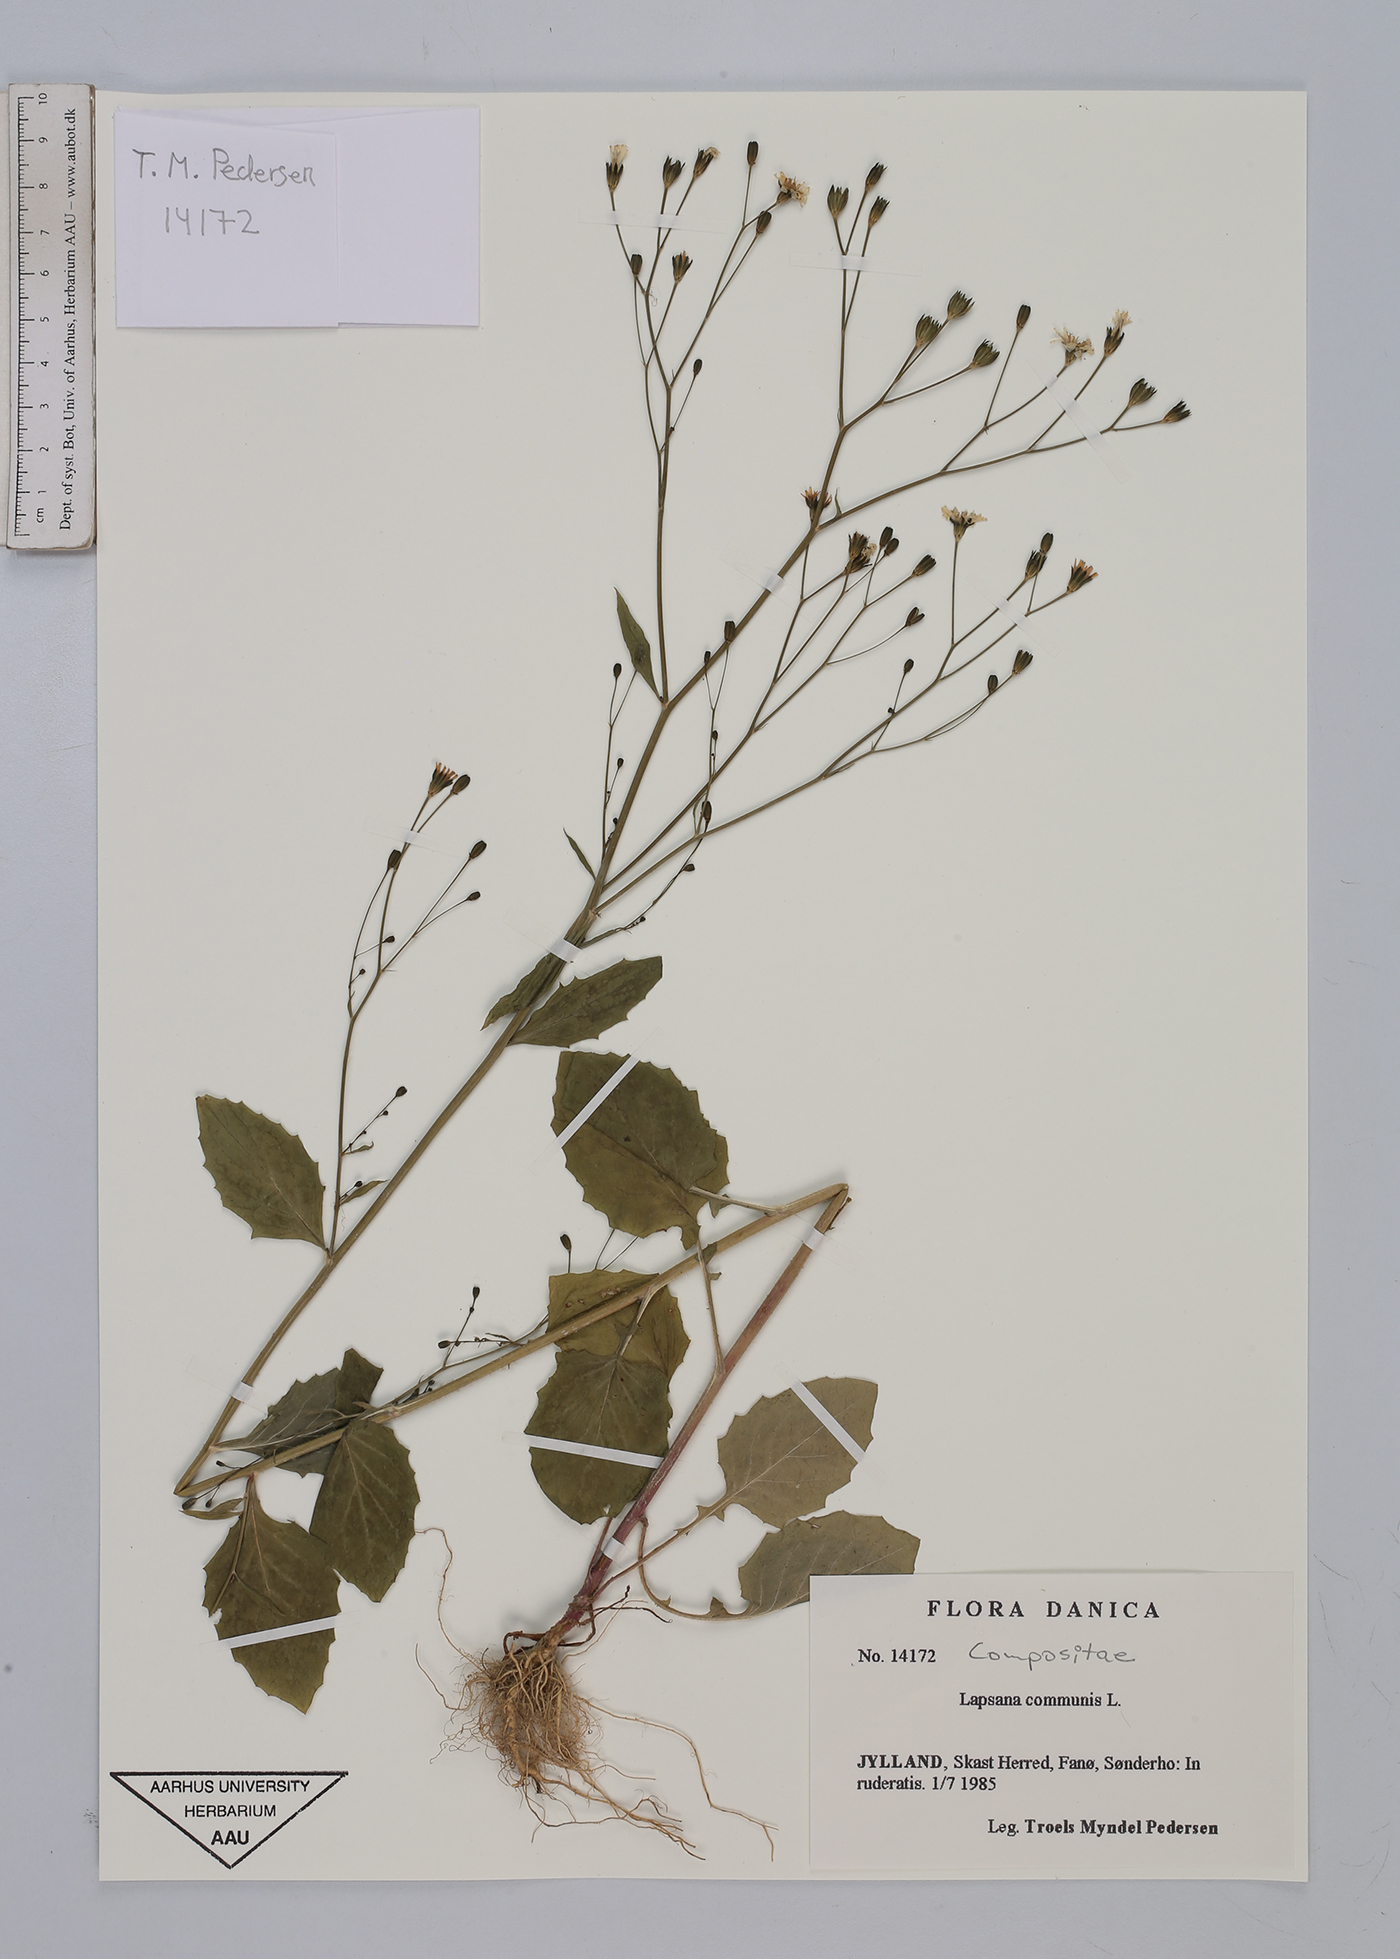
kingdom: Plantae
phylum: Tracheophyta
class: Magnoliopsida
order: Asterales
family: Asteraceae
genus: Lapsana
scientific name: Lapsana communis
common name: Nipplewort
